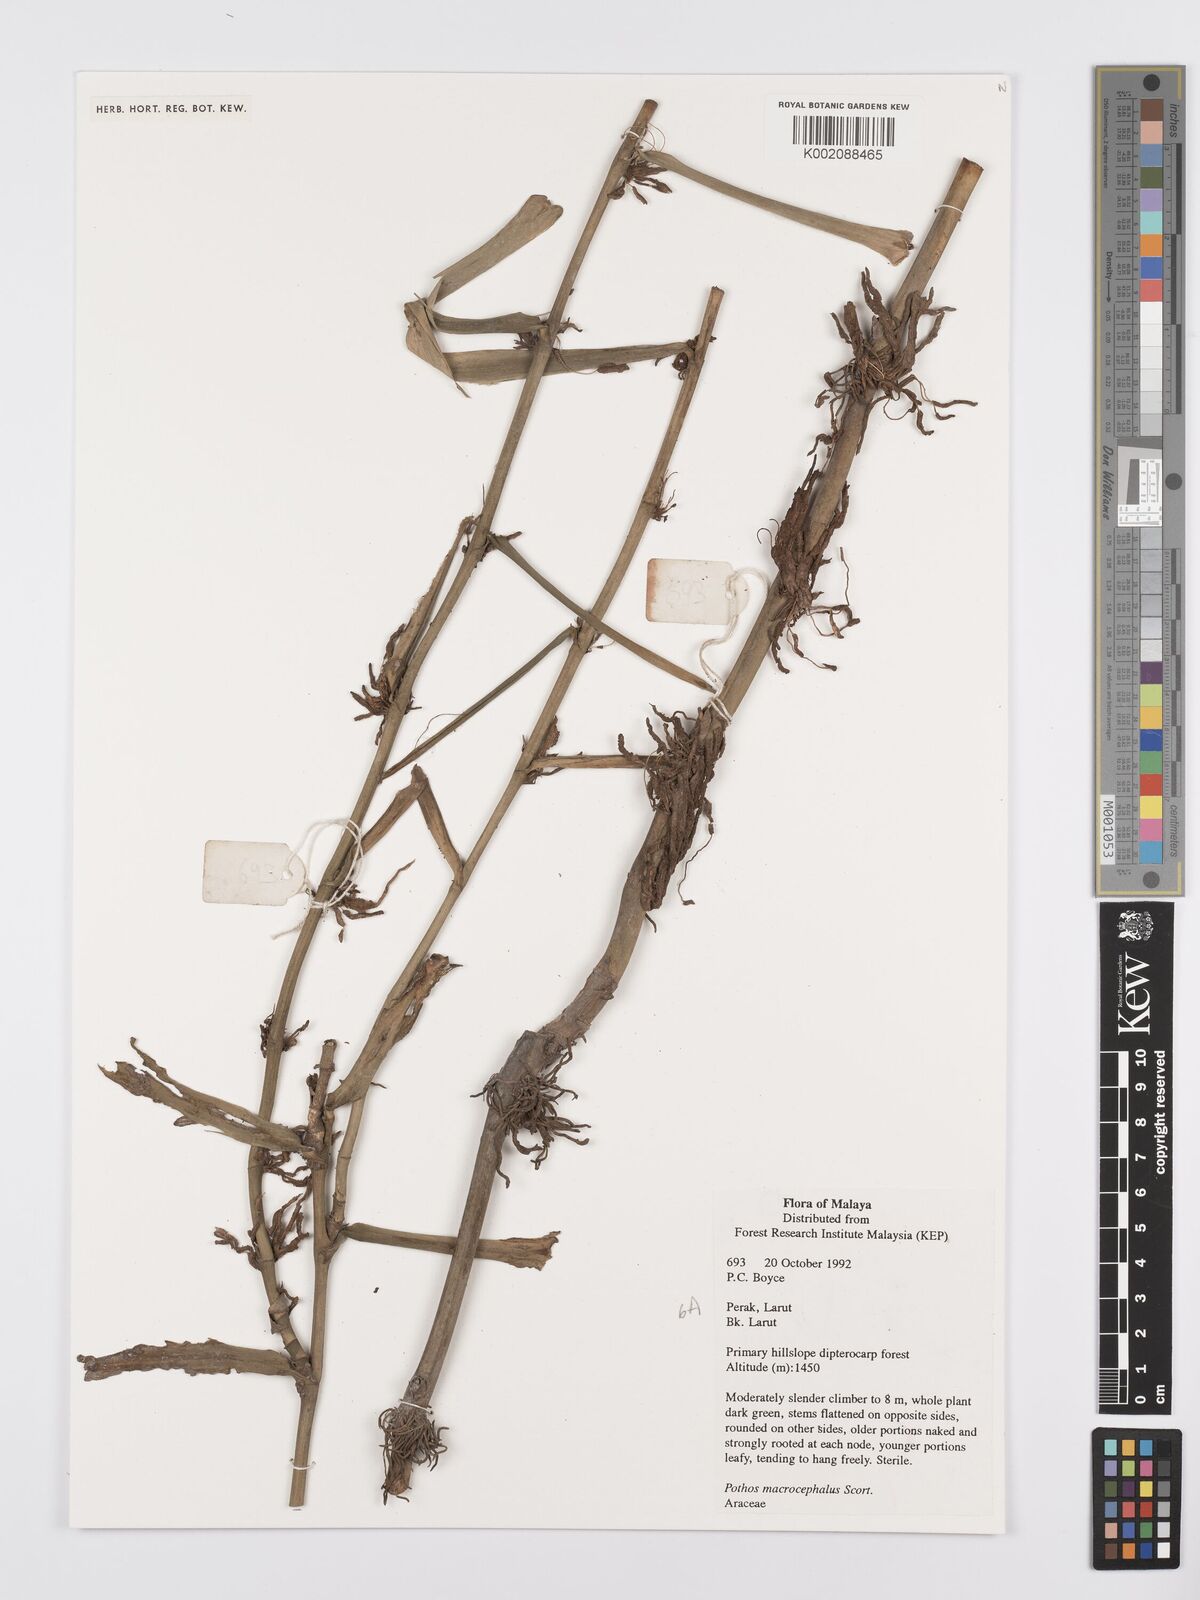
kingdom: Plantae
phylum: Tracheophyta
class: Liliopsida
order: Alismatales
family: Araceae
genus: Pothos
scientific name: Pothos macrocephalus
